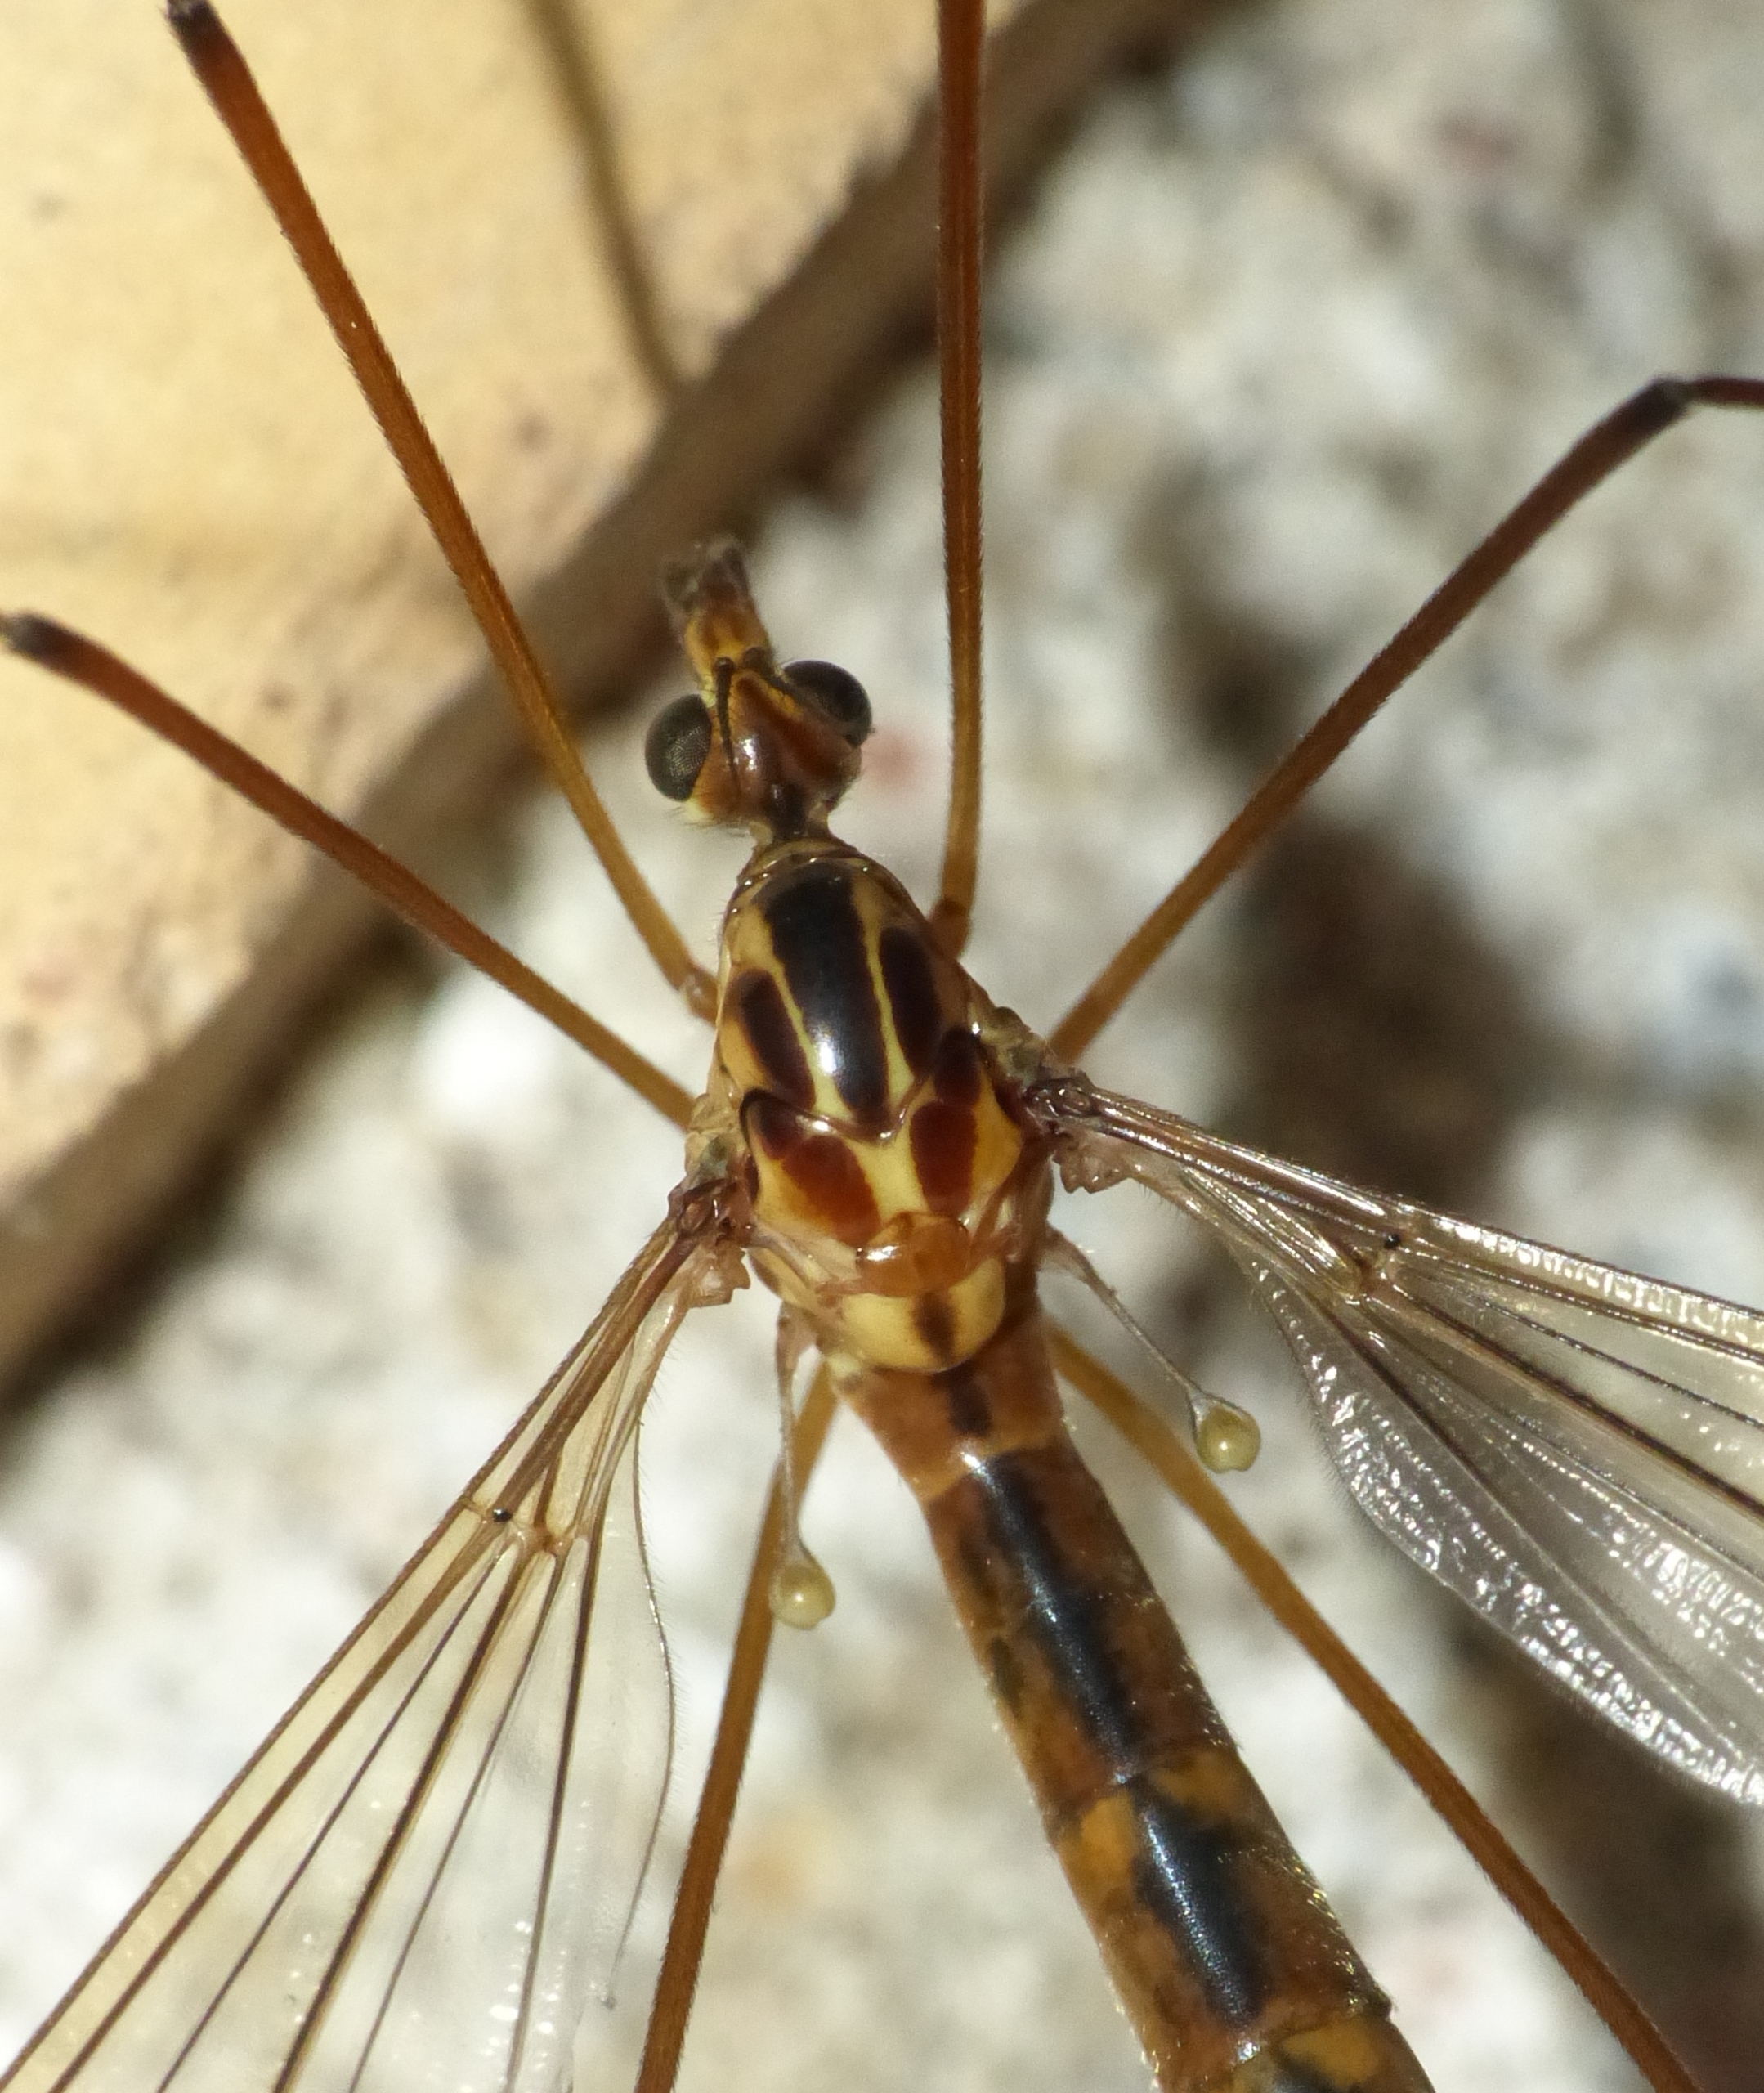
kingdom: Animalia
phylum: Arthropoda
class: Insecta
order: Diptera
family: Tipulidae
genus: Nephrotoma
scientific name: Nephrotoma scurra
